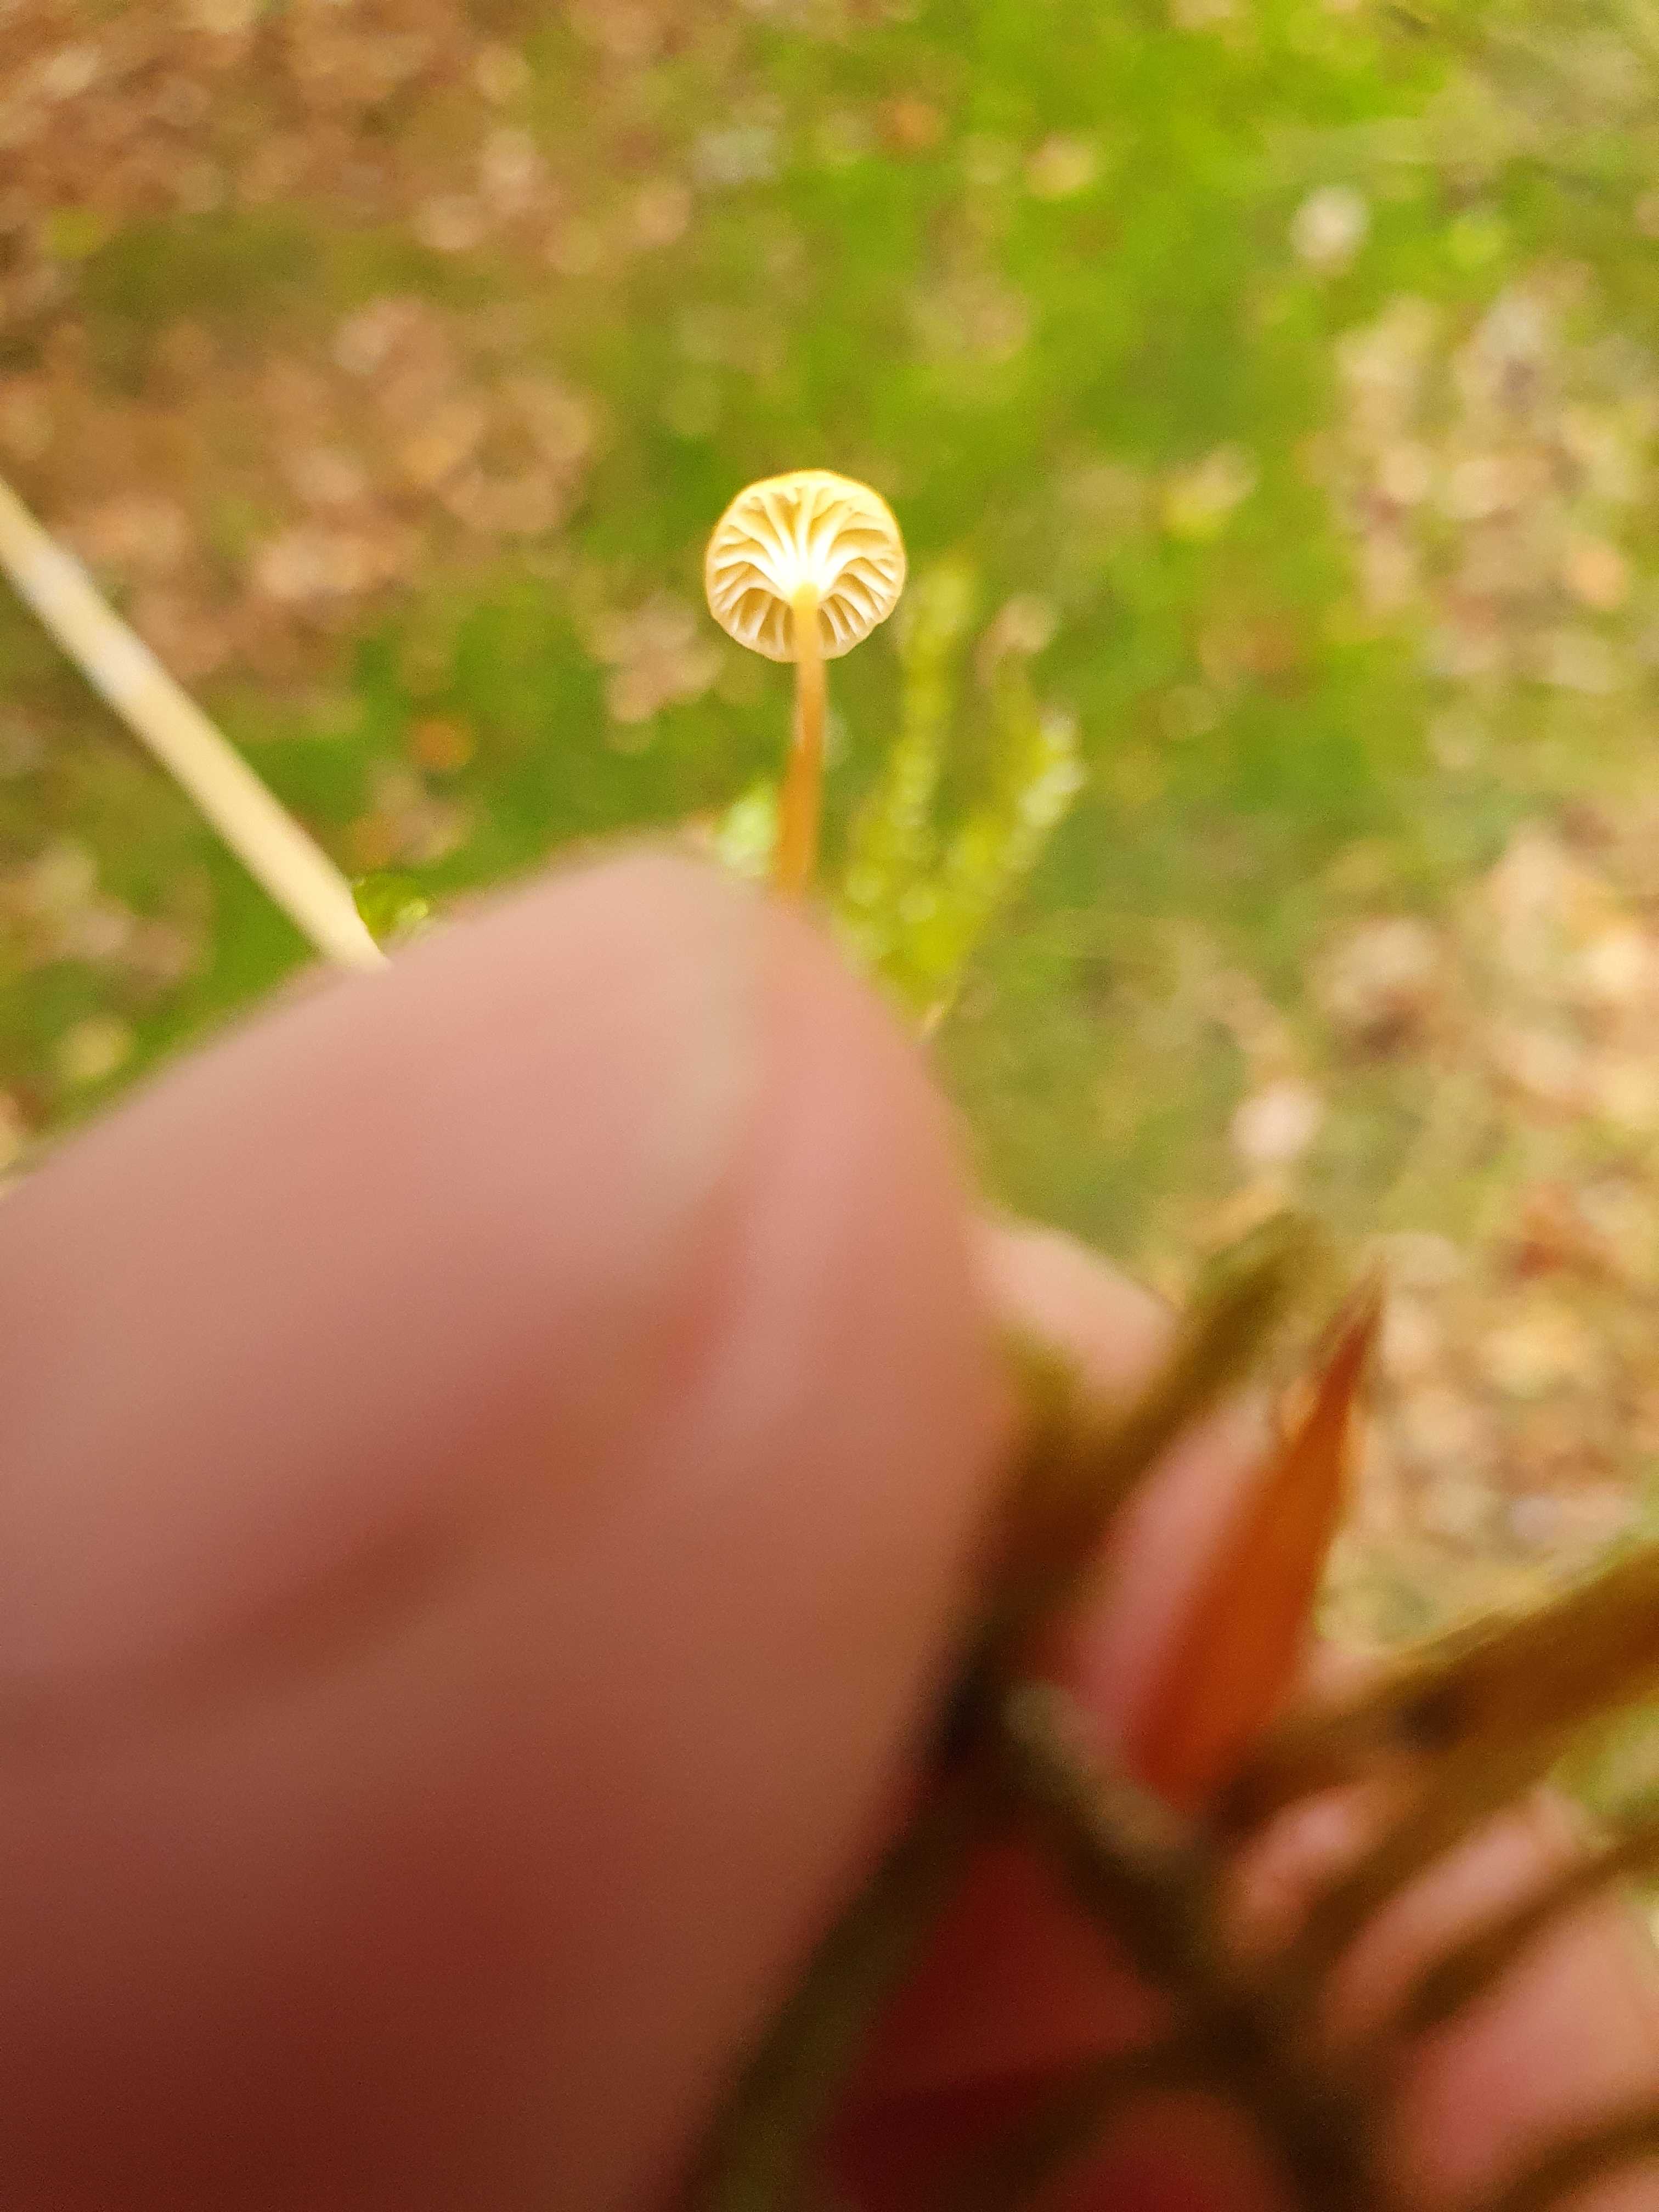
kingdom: Fungi
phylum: Basidiomycota
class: Agaricomycetes
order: Hymenochaetales
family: Rickenellaceae
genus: Rickenella
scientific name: Rickenella fibula
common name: orange mosnavlehat
